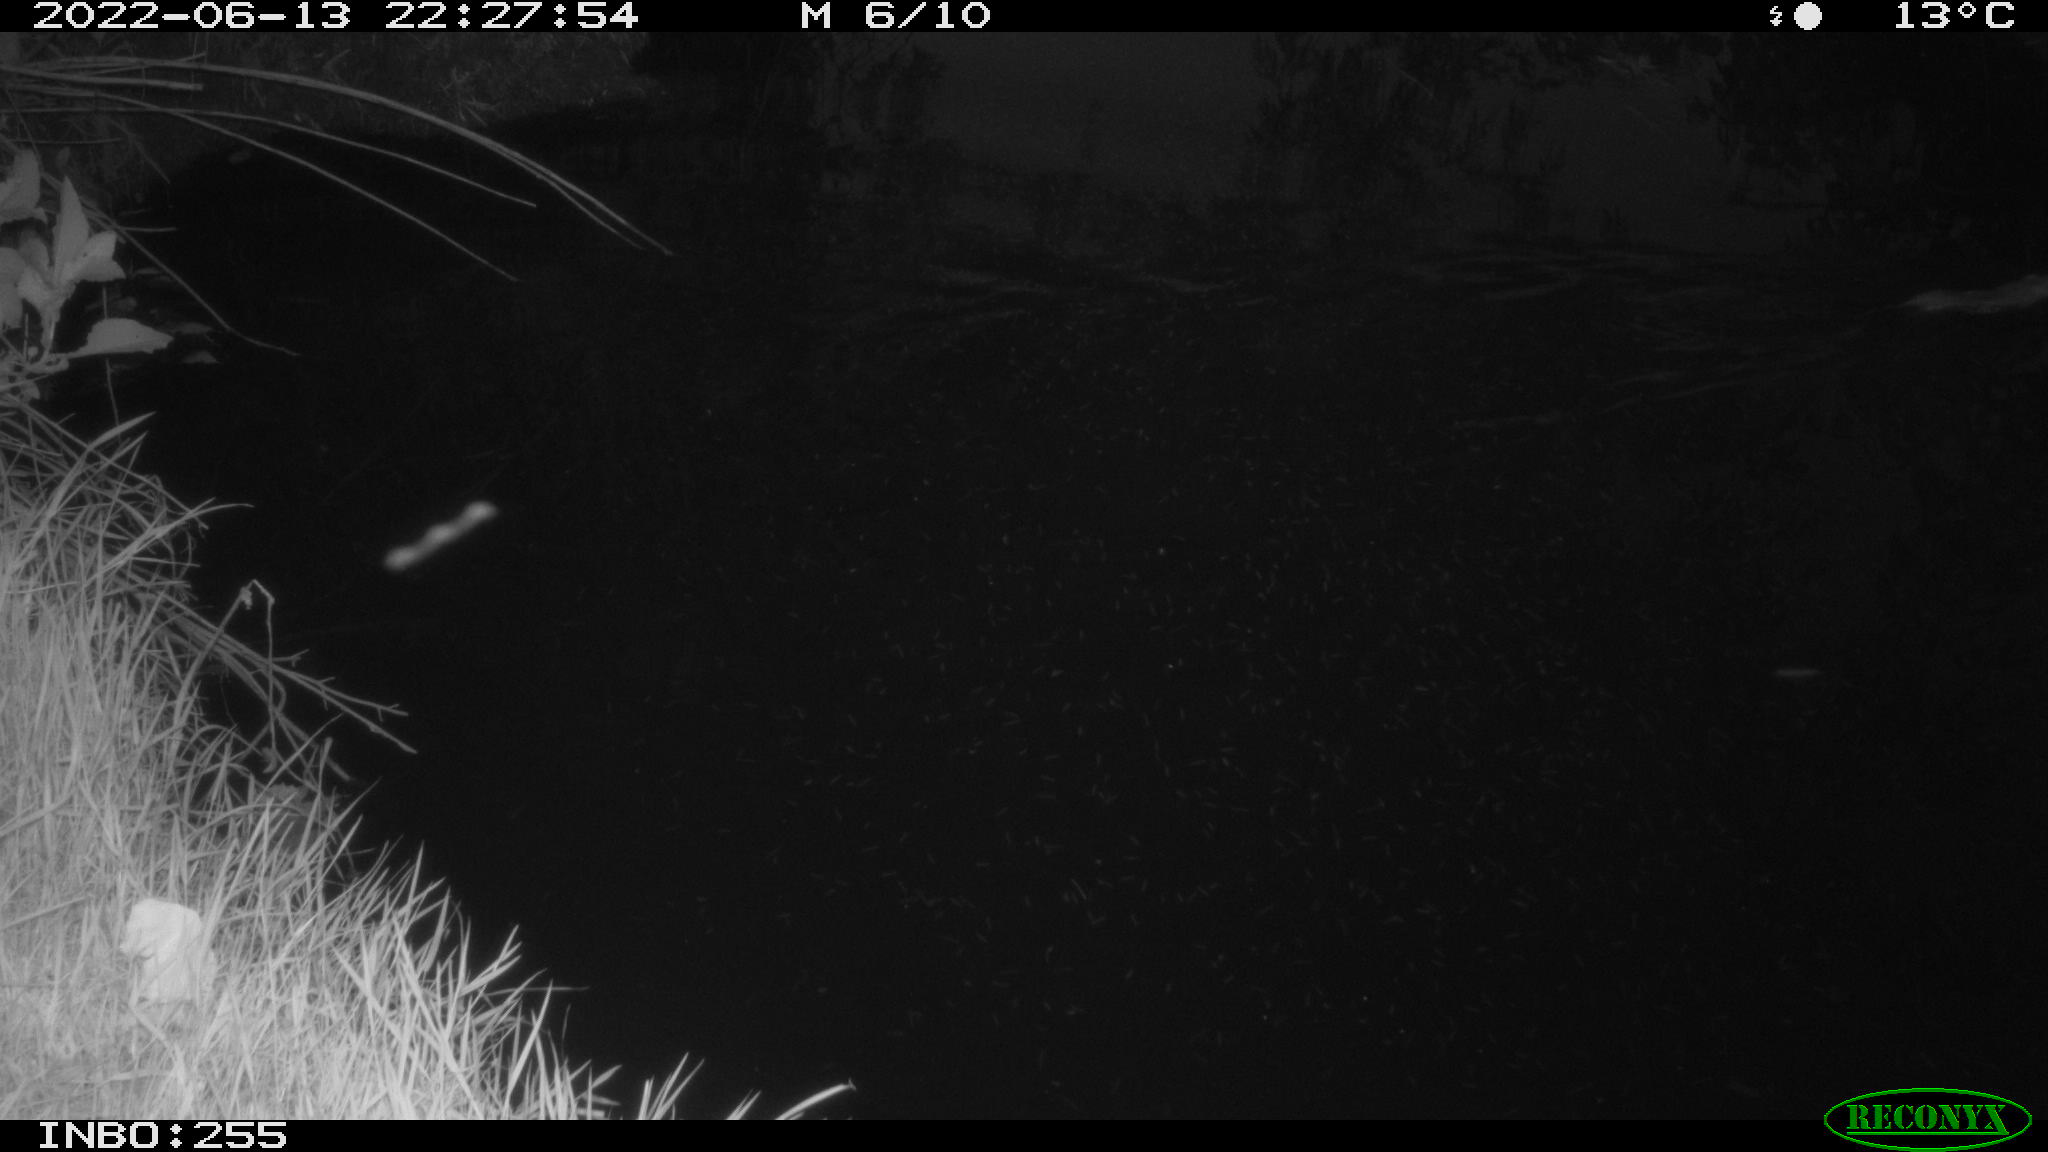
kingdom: Animalia
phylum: Chordata
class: Mammalia
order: Rodentia
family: Muridae
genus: Rattus
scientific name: Rattus norvegicus
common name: Brown rat
